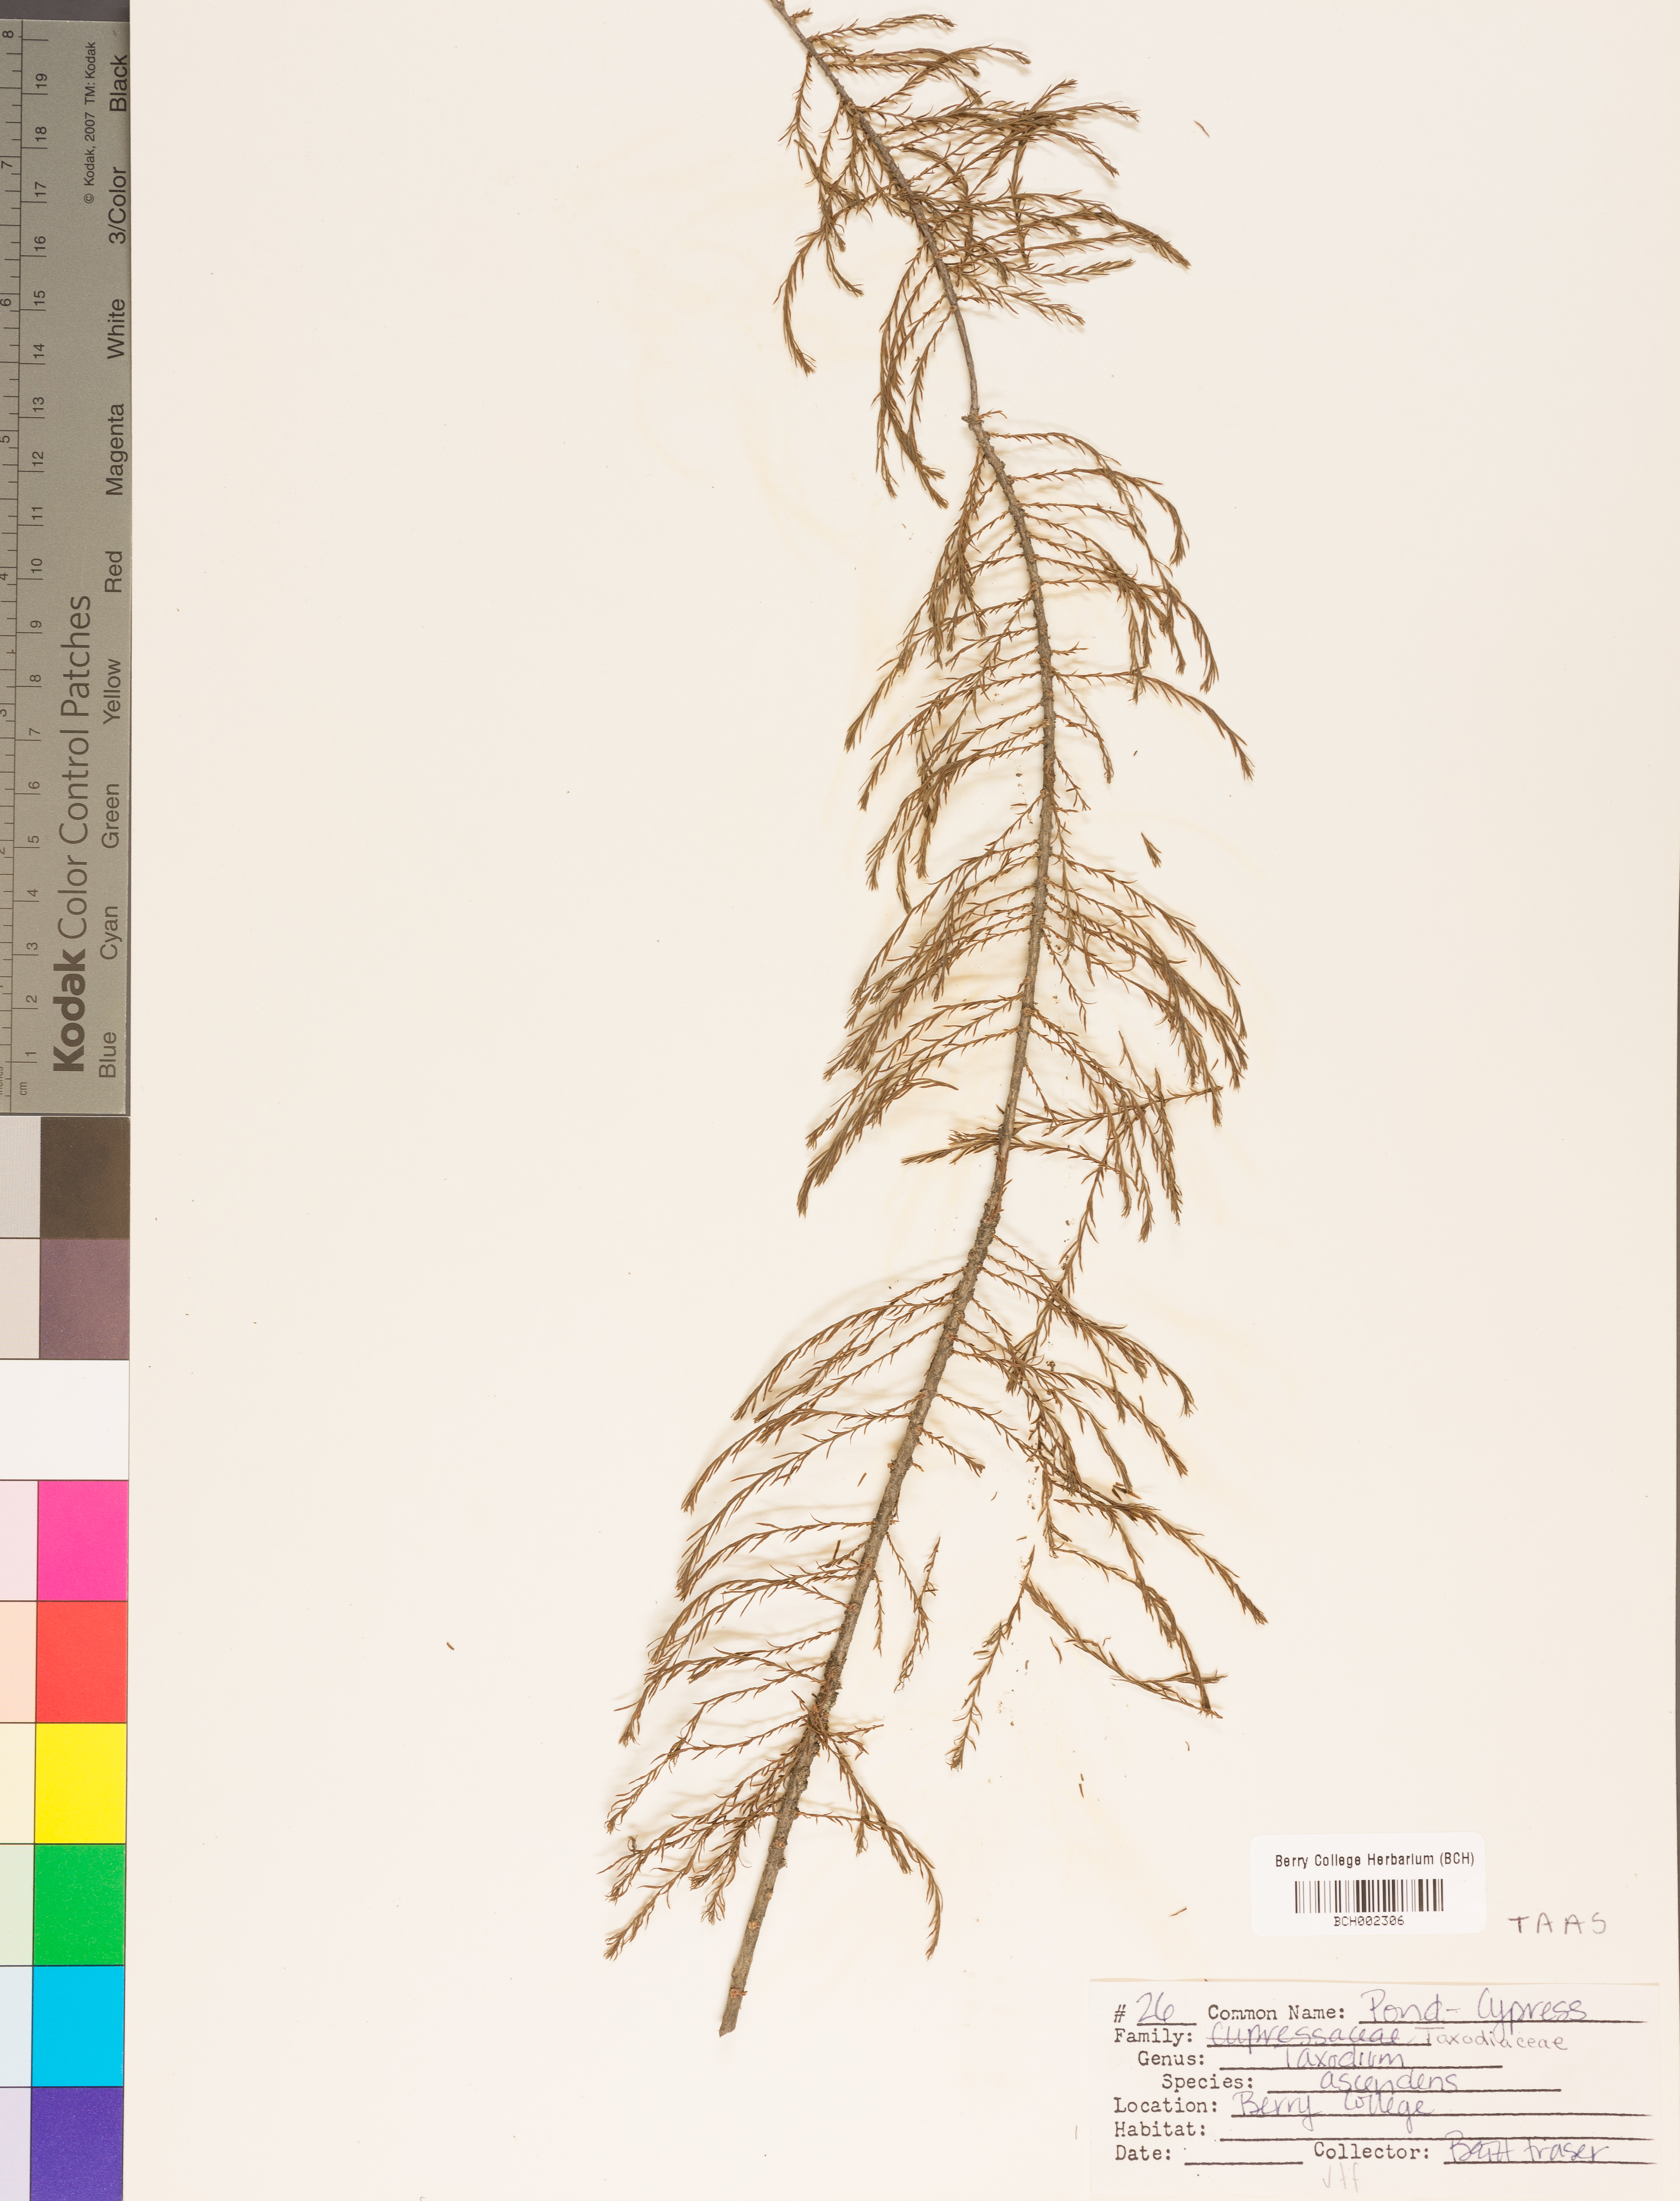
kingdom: Plantae
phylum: Tracheophyta
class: Pinopsida
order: Pinales
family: Cupressaceae
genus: Taxodium
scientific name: Taxodium distichum
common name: Bald cypress
